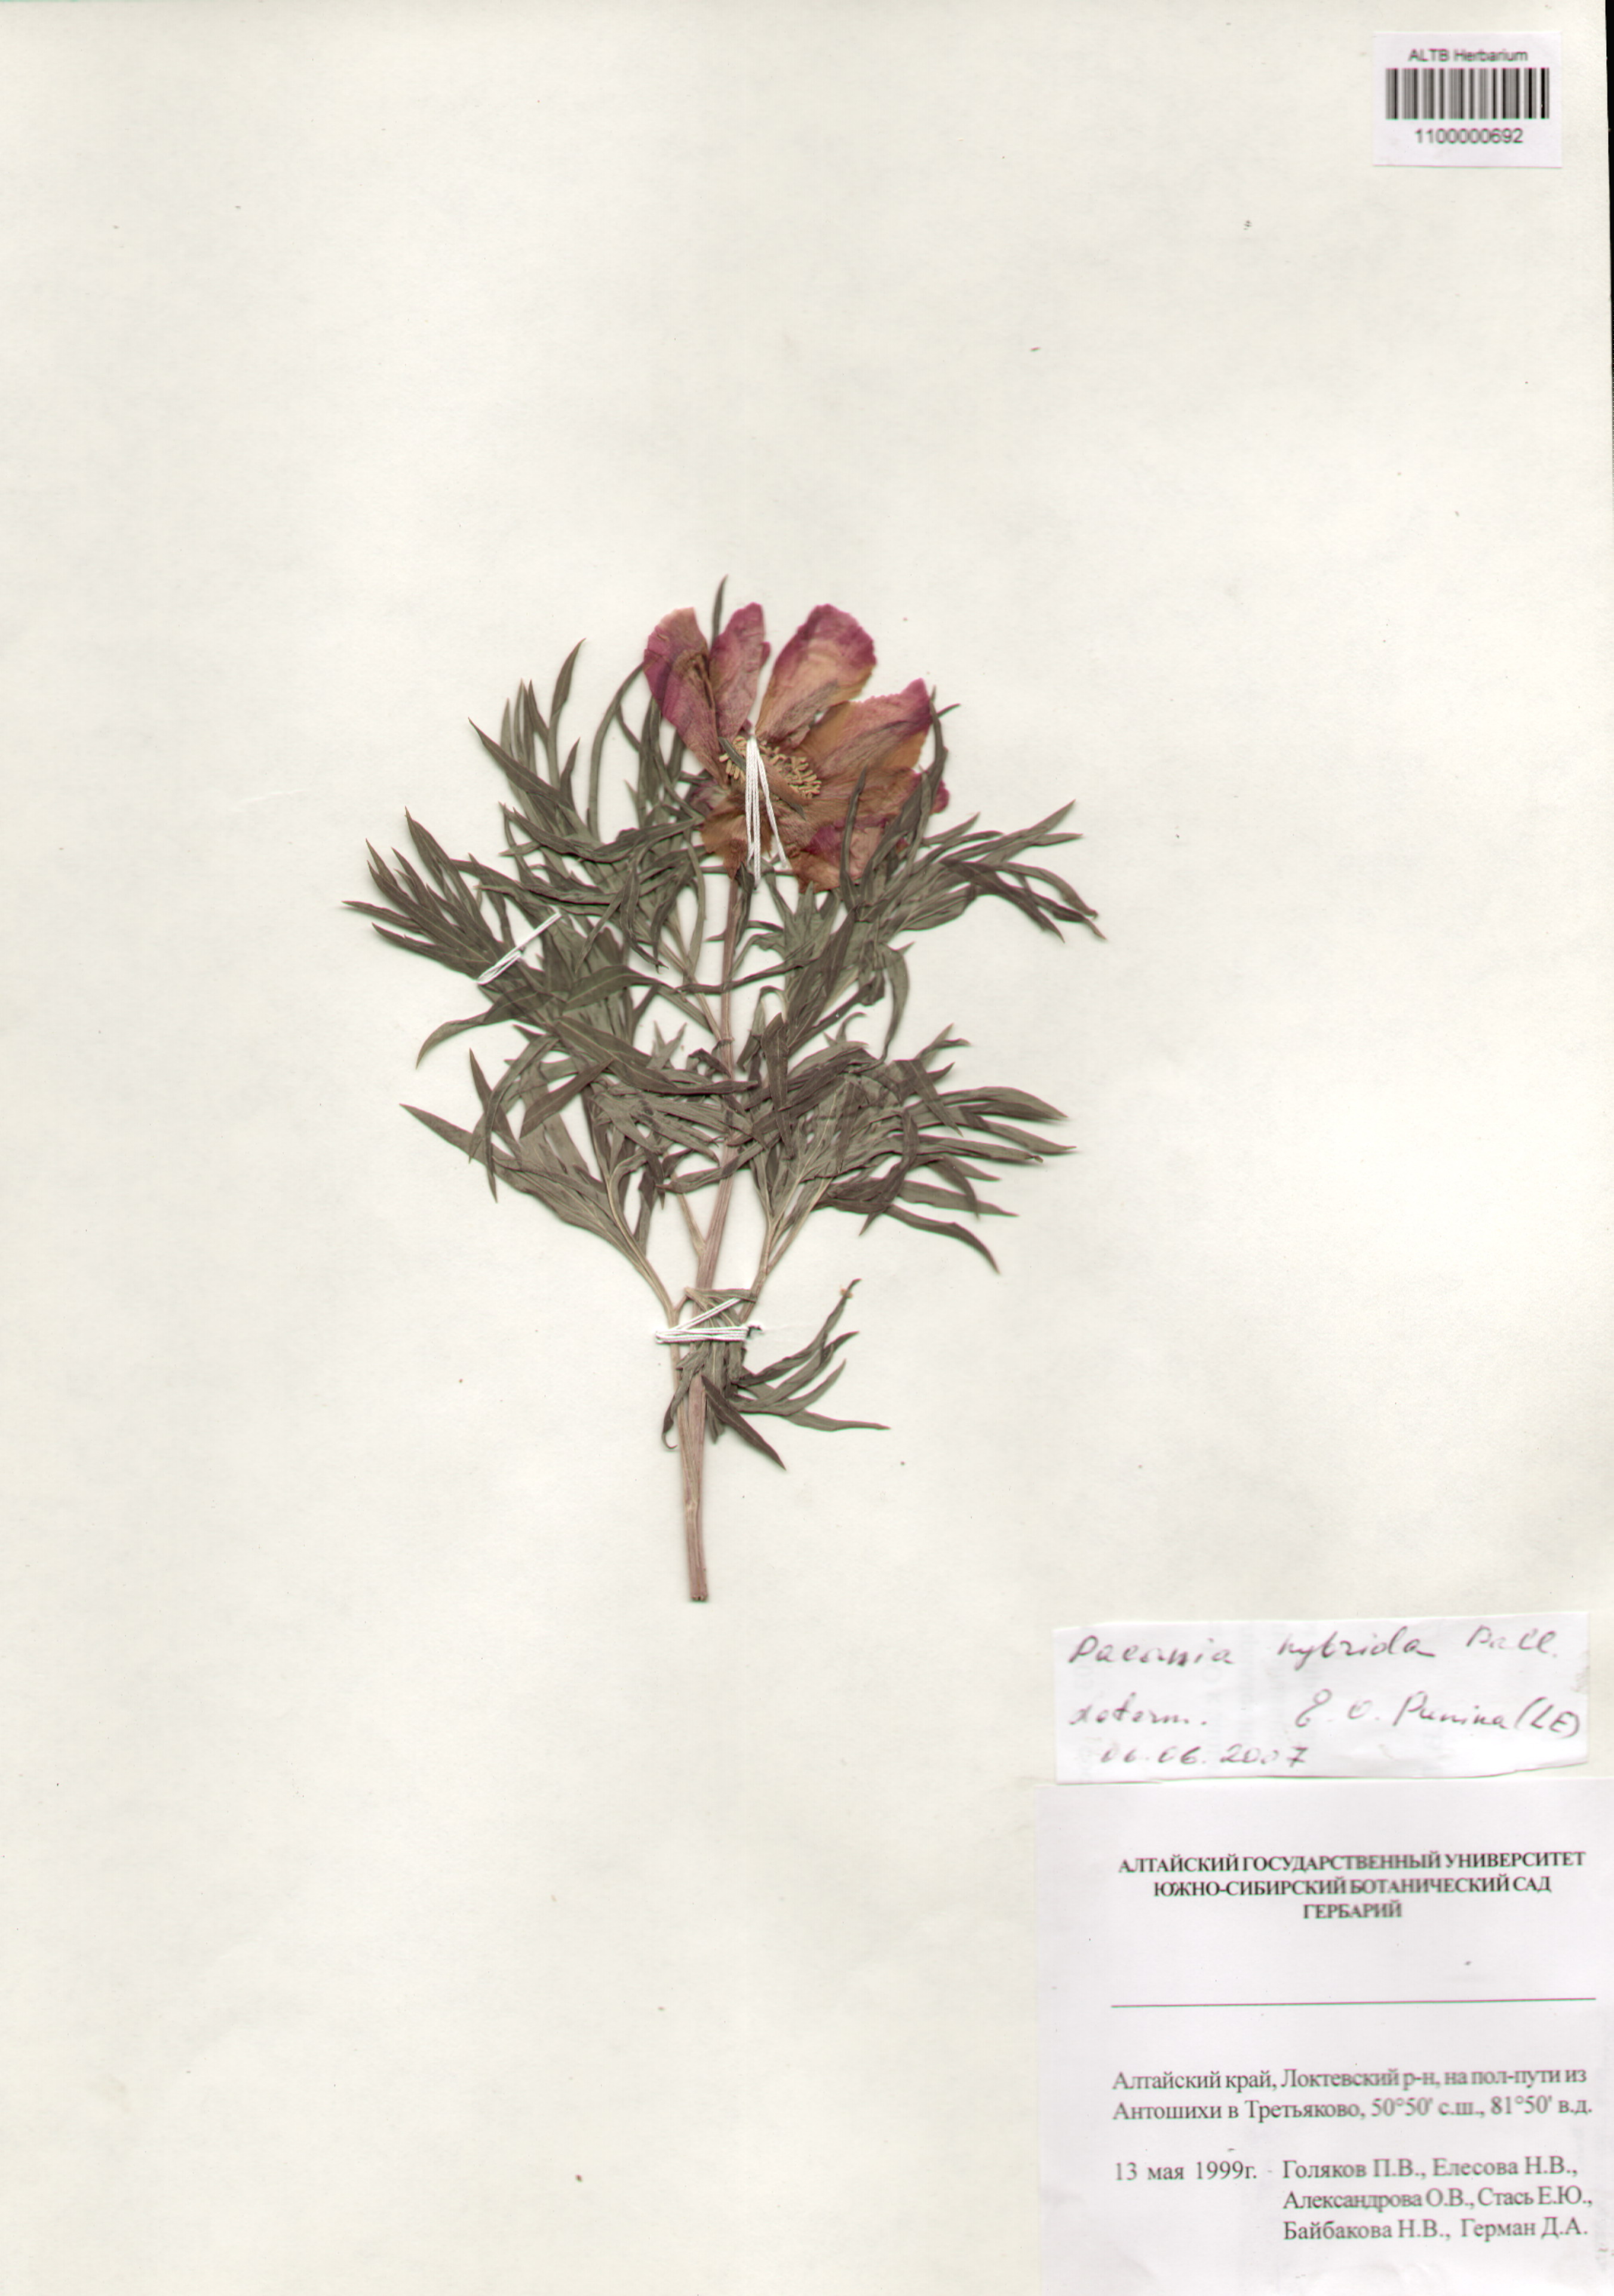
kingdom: Plantae
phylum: Tracheophyta
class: Magnoliopsida
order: Saxifragales
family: Paeoniaceae
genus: Paeonia
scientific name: Paeonia
